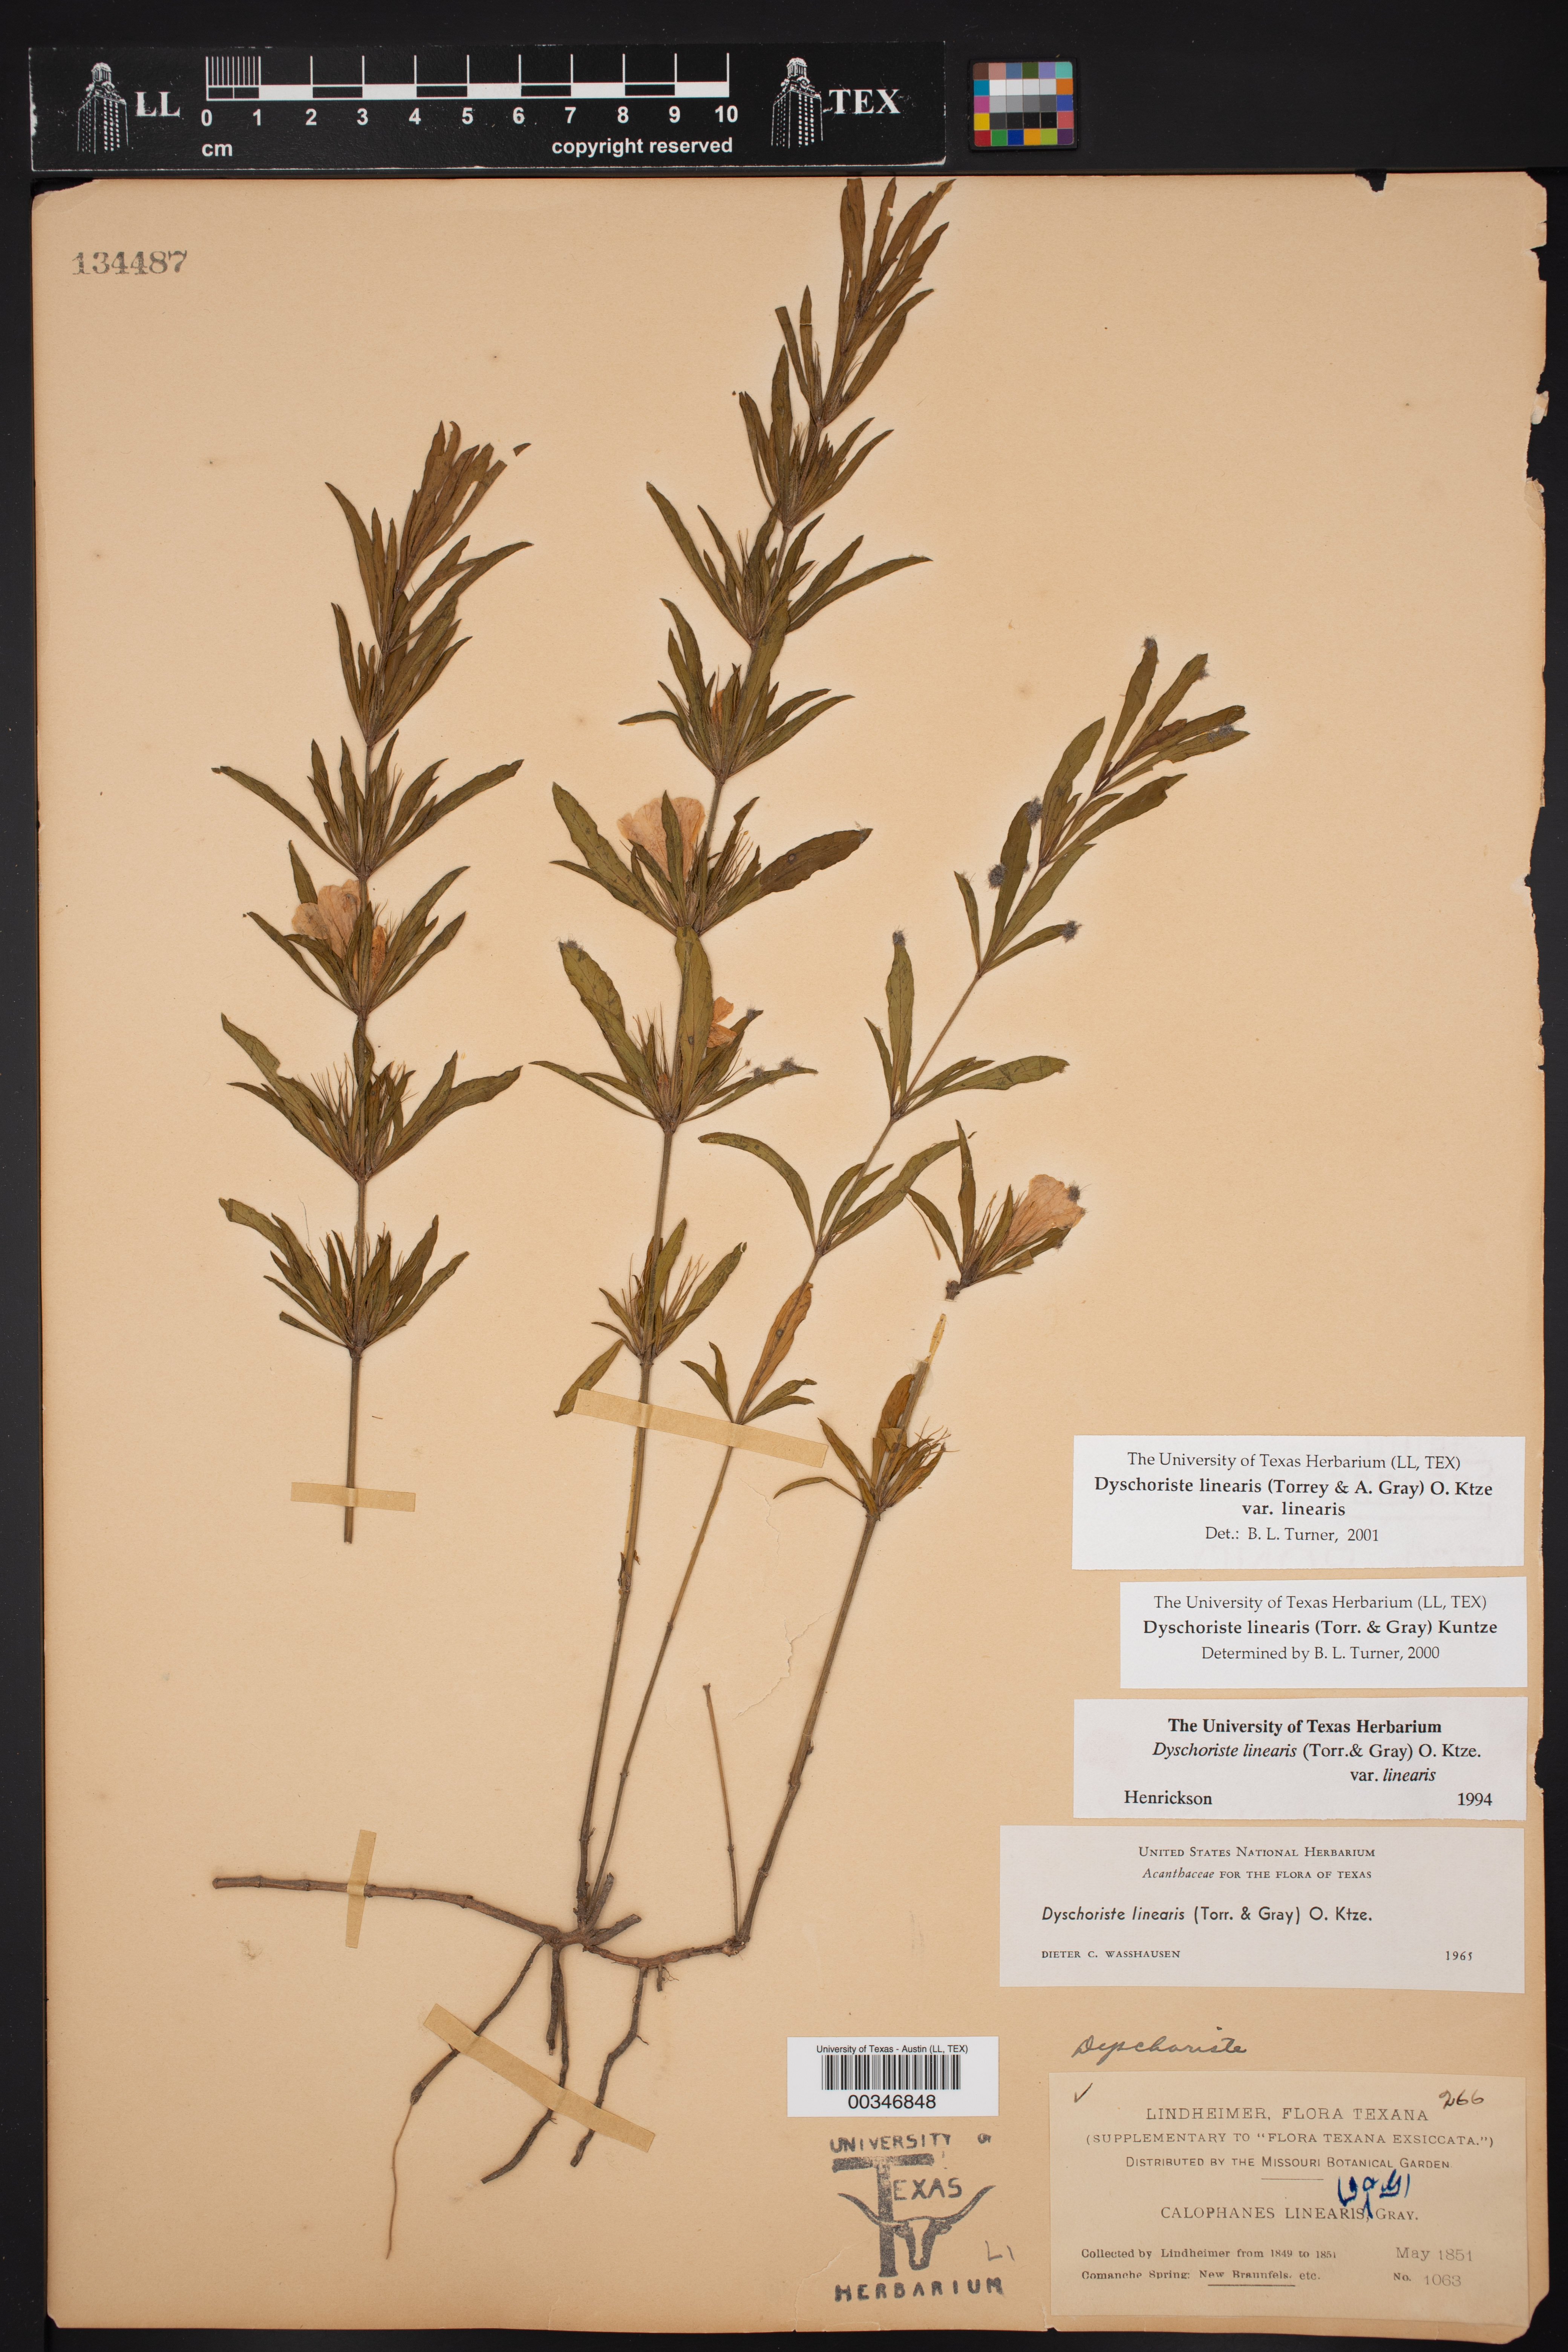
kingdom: Plantae
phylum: Tracheophyta
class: Magnoliopsida
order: Lamiales
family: Acanthaceae
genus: Dyschoriste
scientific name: Dyschoriste linearis
